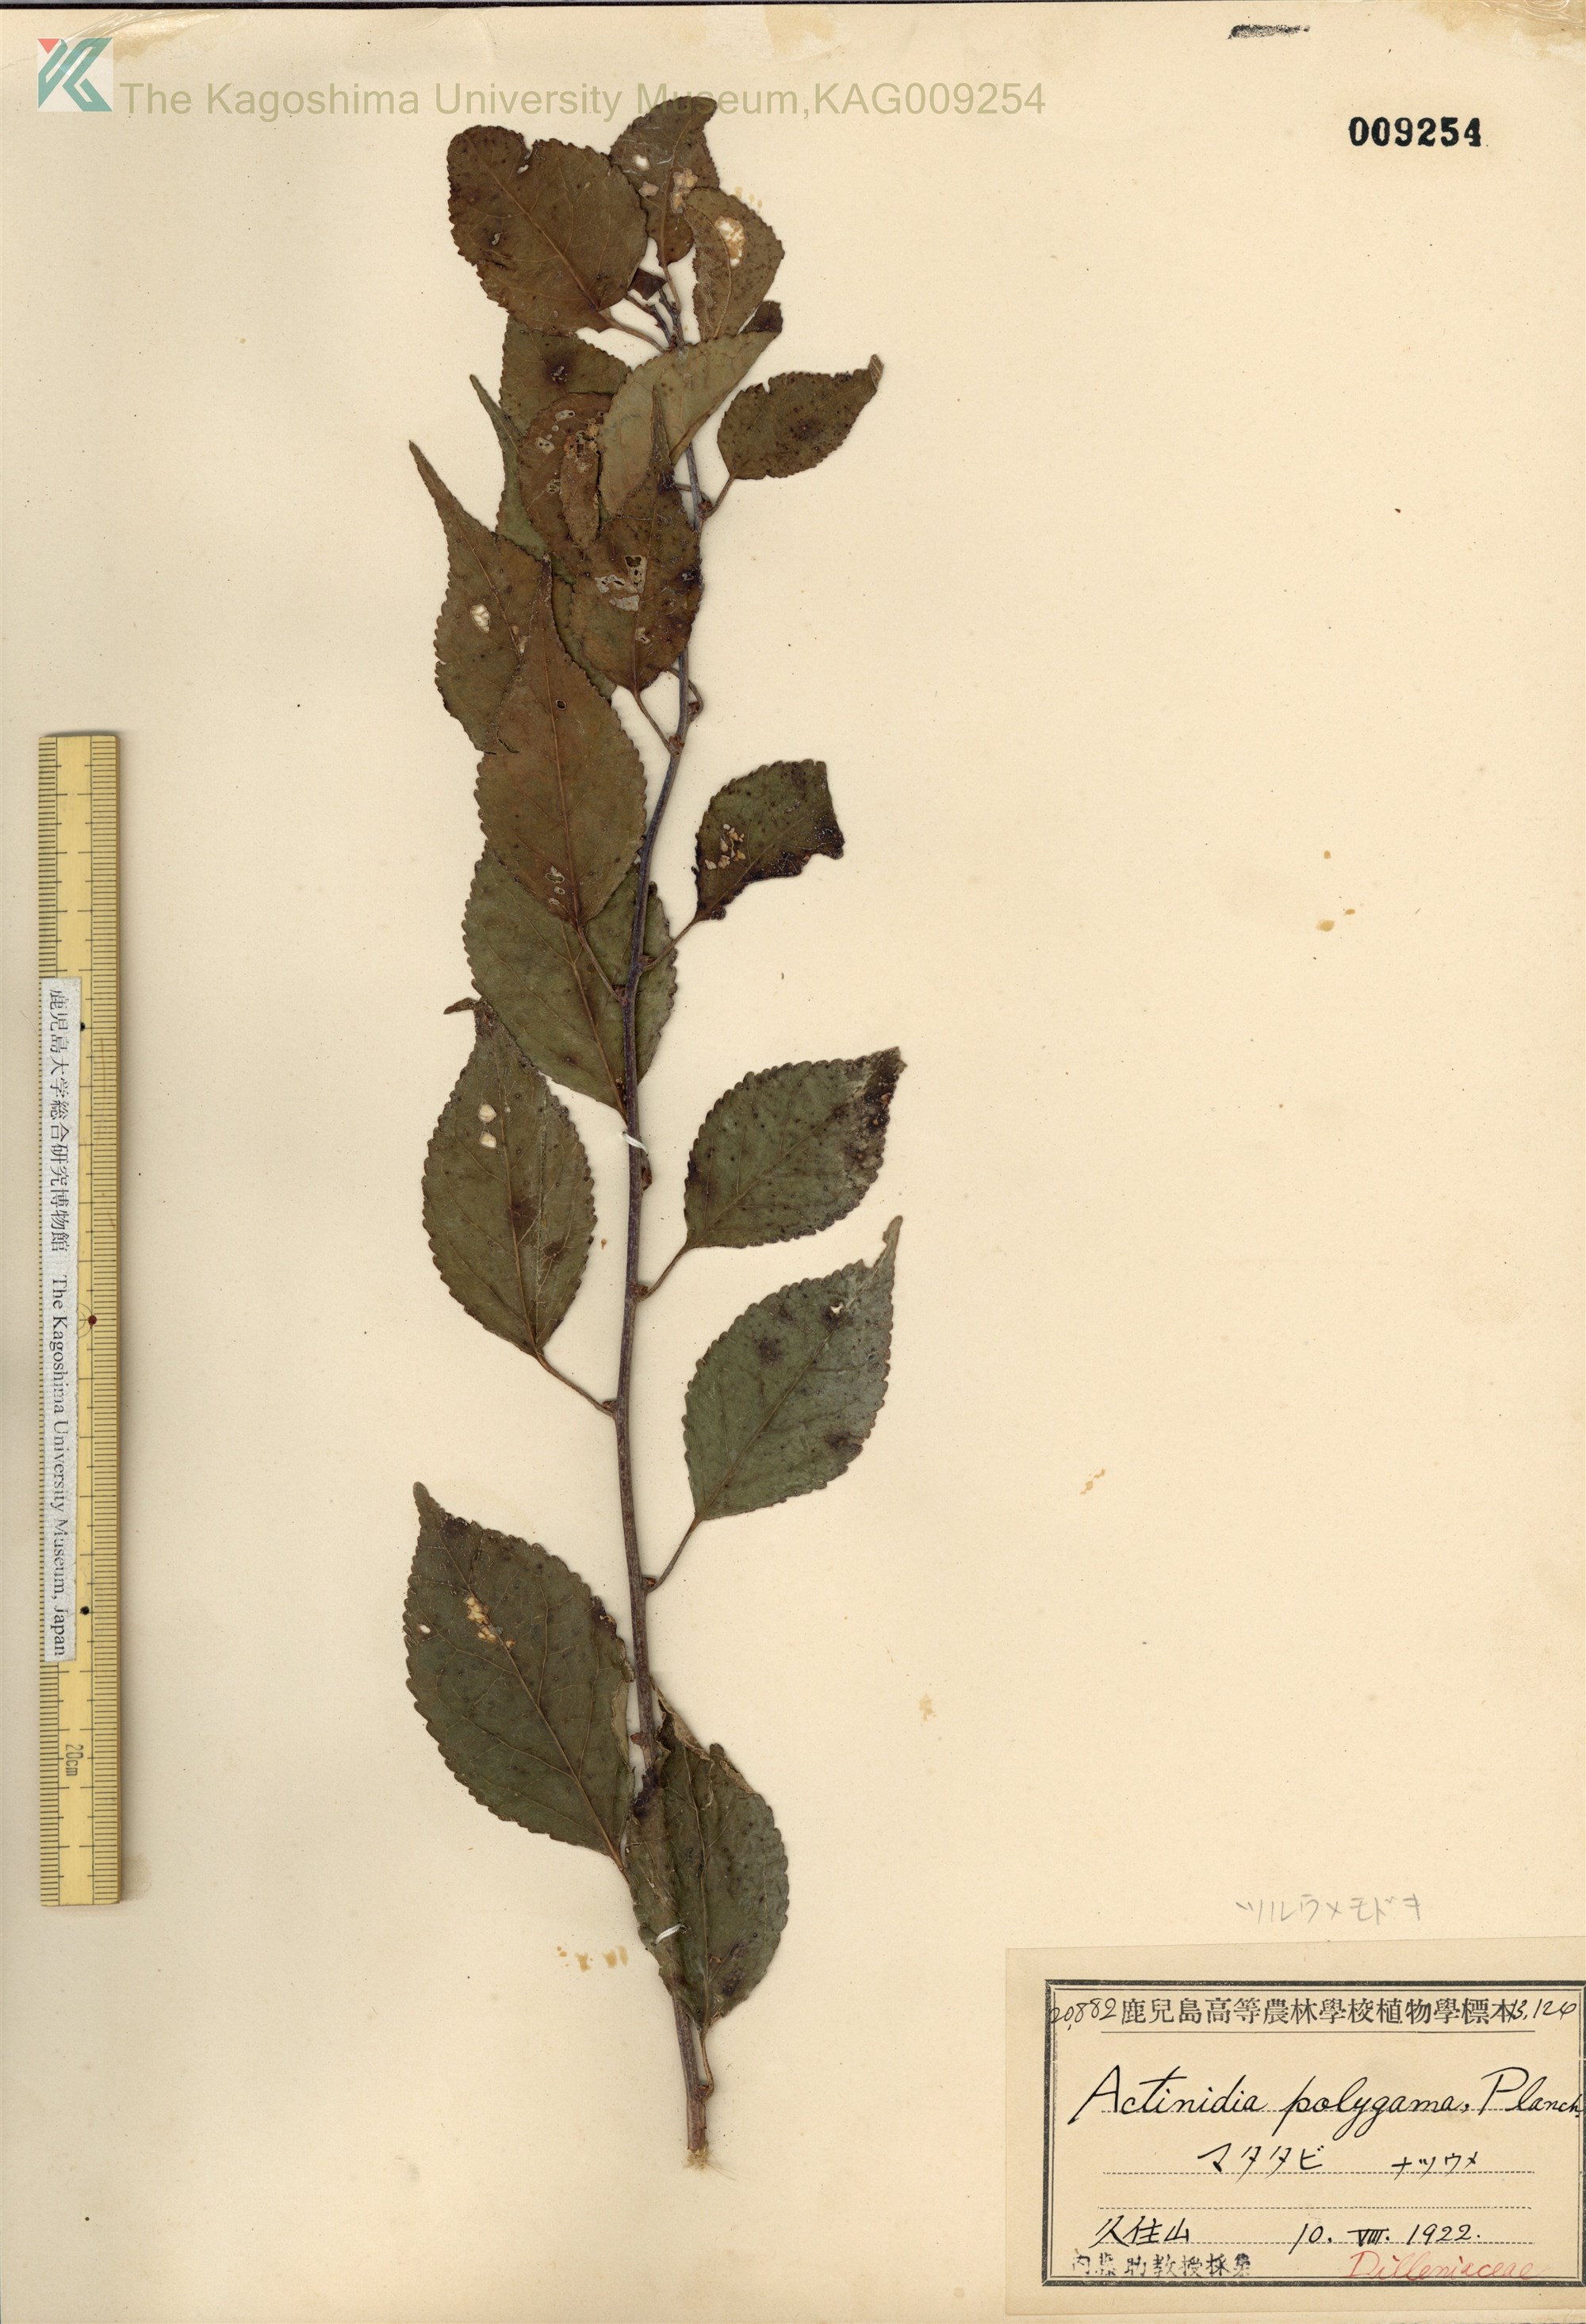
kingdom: Plantae
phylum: Tracheophyta
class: Magnoliopsida
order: Celastrales
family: Celastraceae
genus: Celastrus
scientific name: Celastrus orbiculatus
